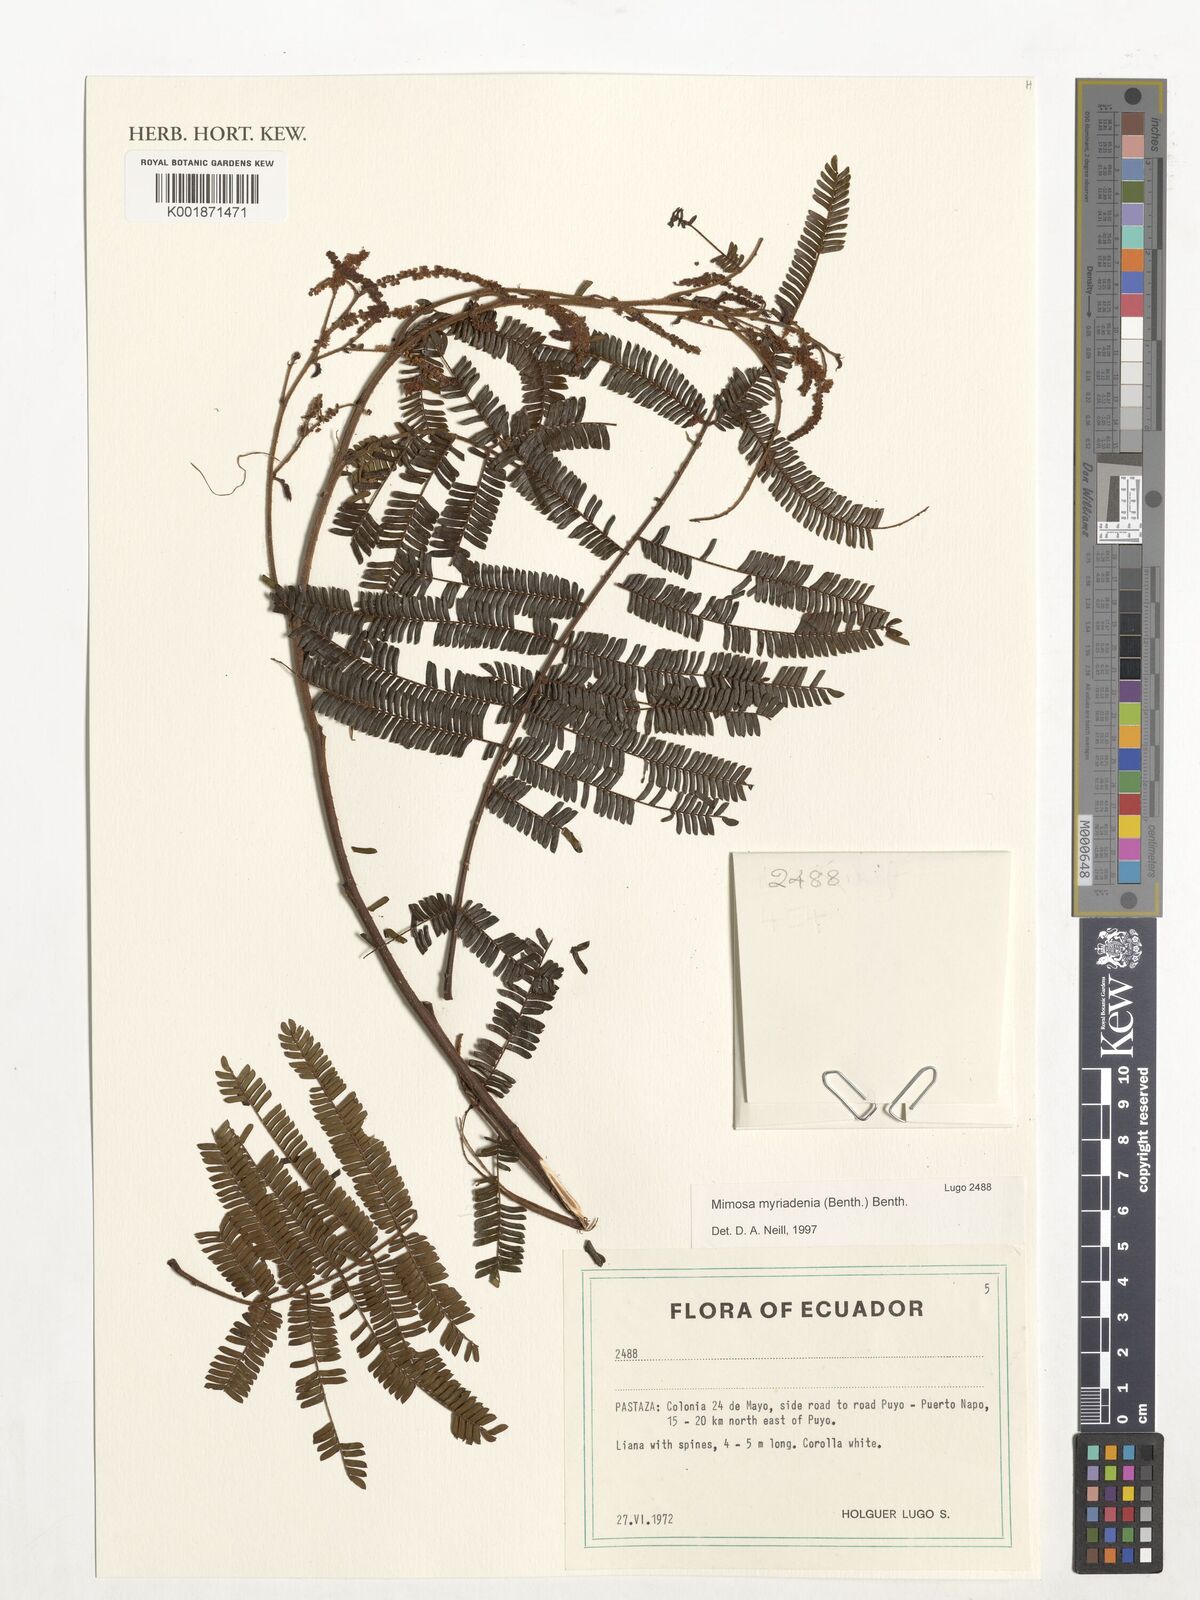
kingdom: Plantae
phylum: Tracheophyta
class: Magnoliopsida
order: Fabales
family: Fabaceae
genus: Mimosa
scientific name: Mimosa myriadenia
